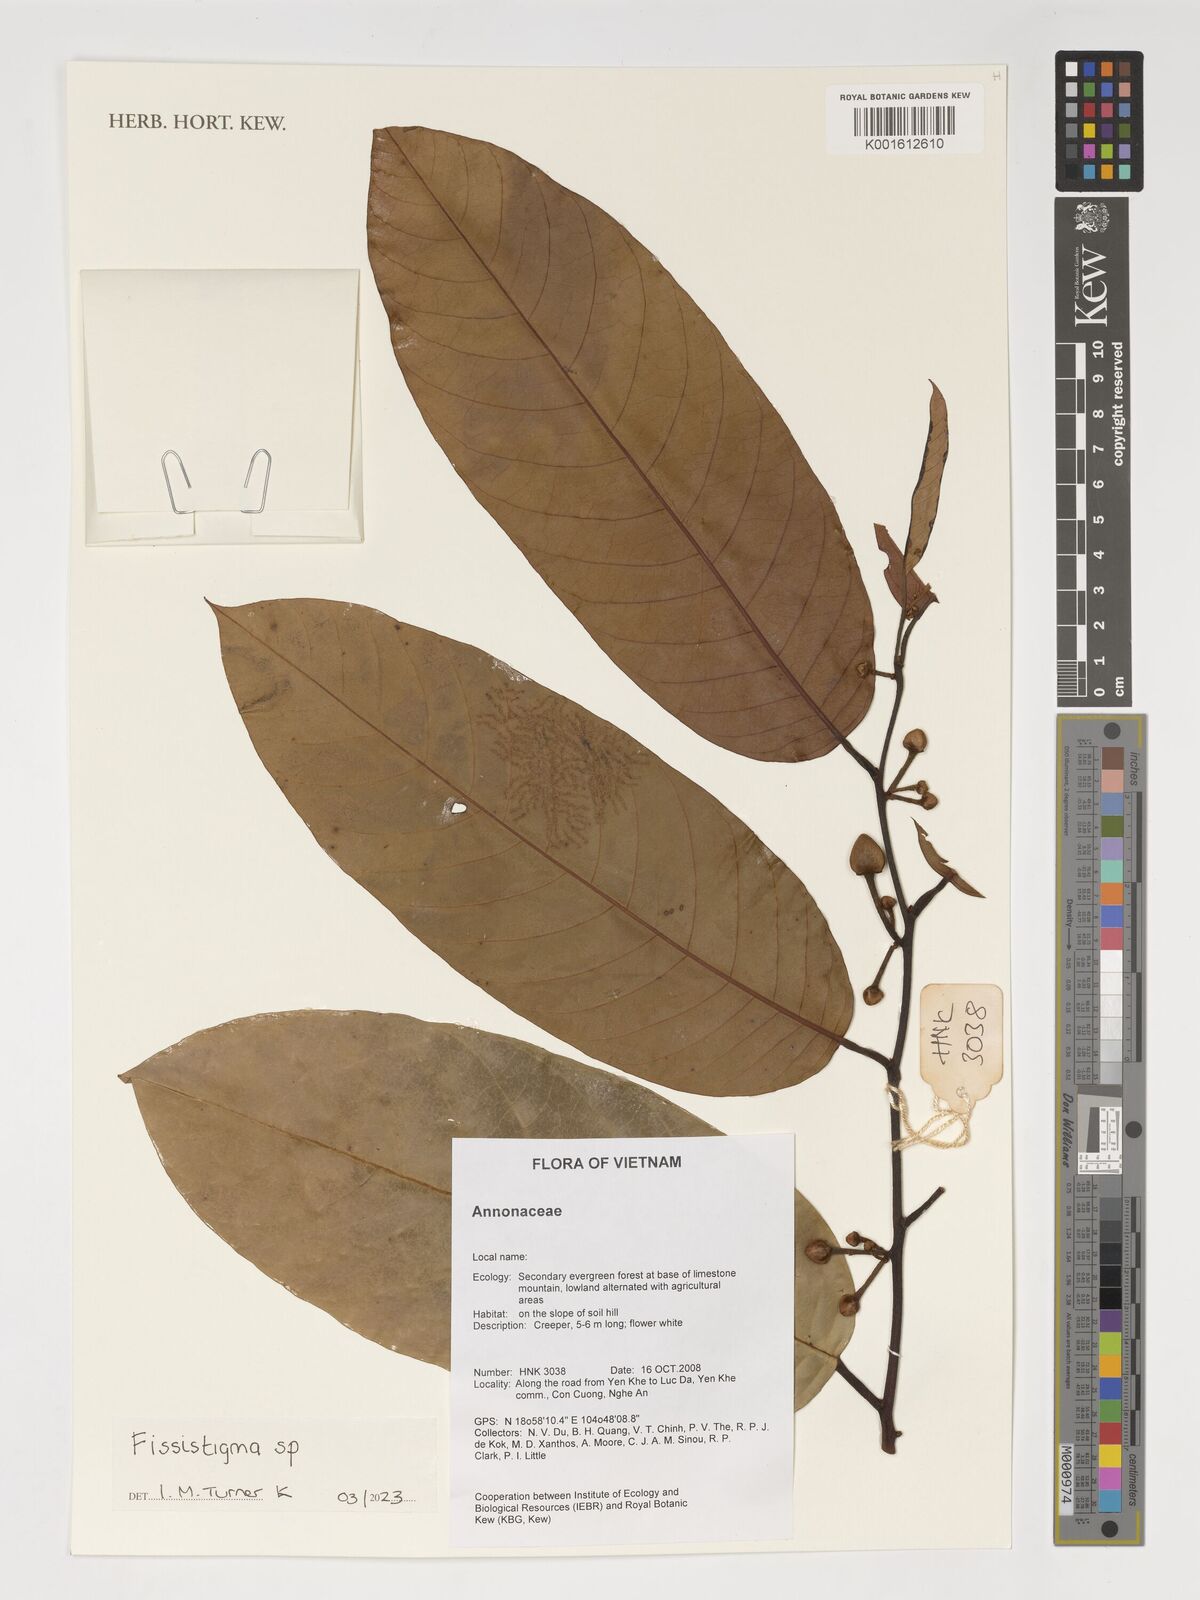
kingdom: Plantae
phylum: Tracheophyta
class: Magnoliopsida
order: Magnoliales
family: Annonaceae
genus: Fissistigma
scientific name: Fissistigma
